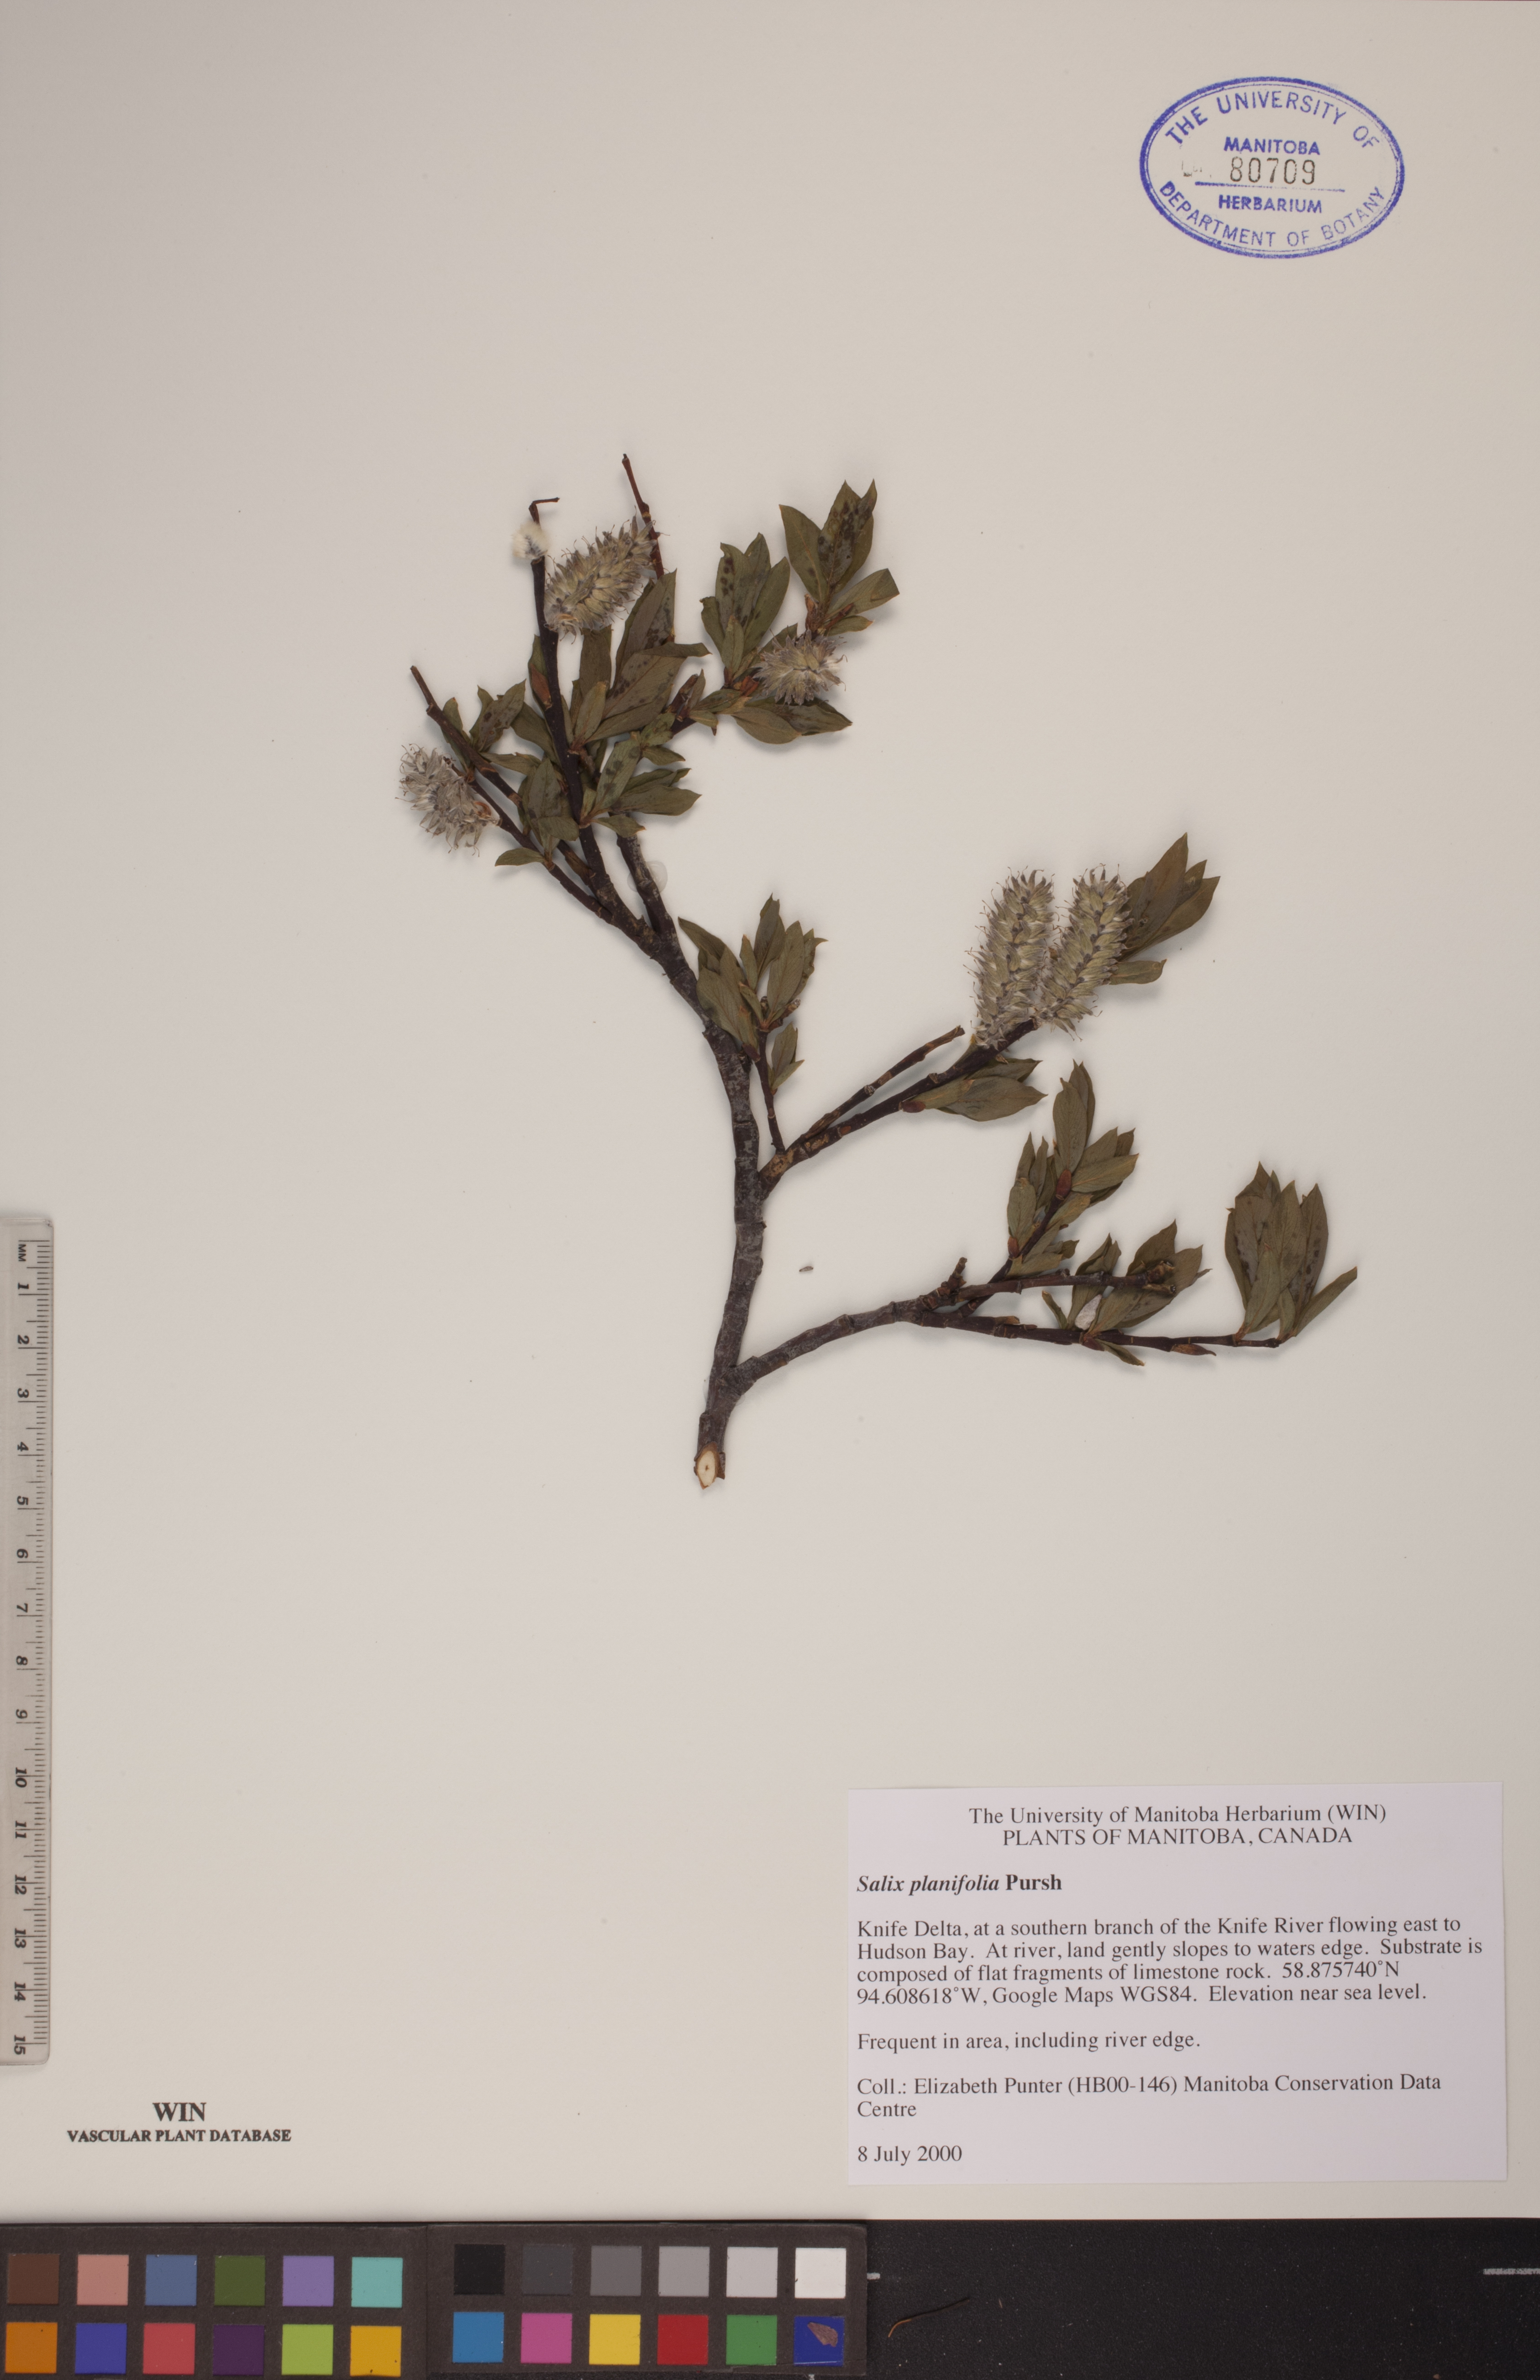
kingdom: Plantae
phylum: Tracheophyta
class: Magnoliopsida
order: Malpighiales
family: Salicaceae
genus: Salix
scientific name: Salix planifolia
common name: Mountain willow
